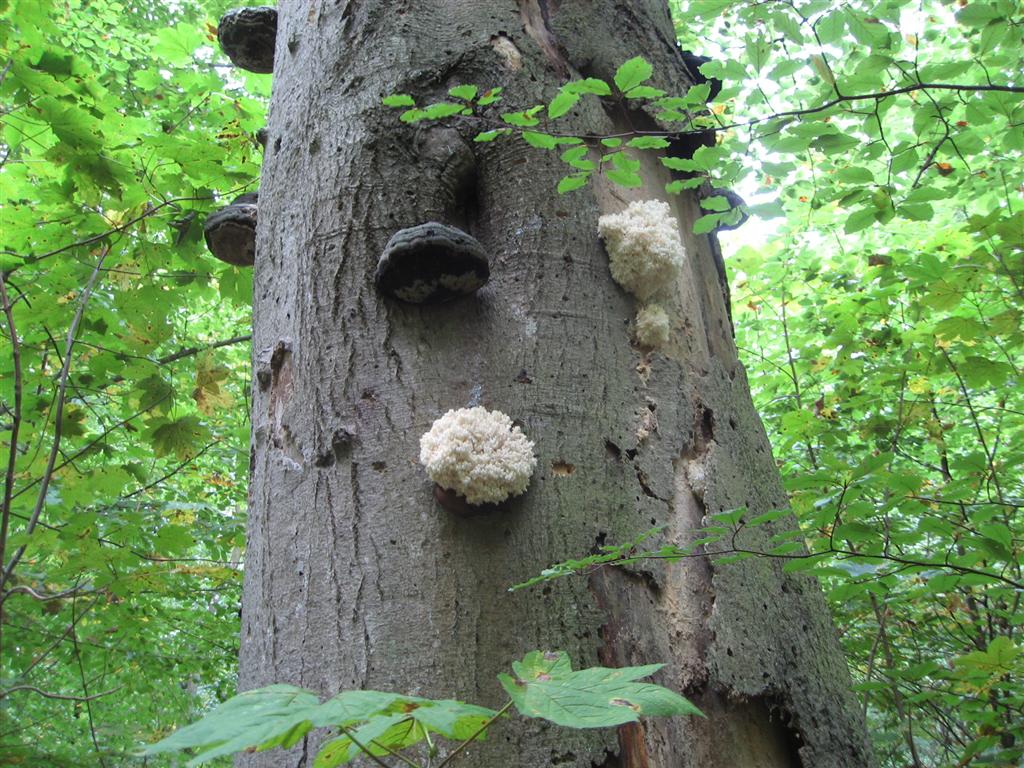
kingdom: Fungi
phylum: Basidiomycota
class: Agaricomycetes
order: Russulales
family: Hericiaceae
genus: Hericium
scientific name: Hericium coralloides
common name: koralpigsvamp
